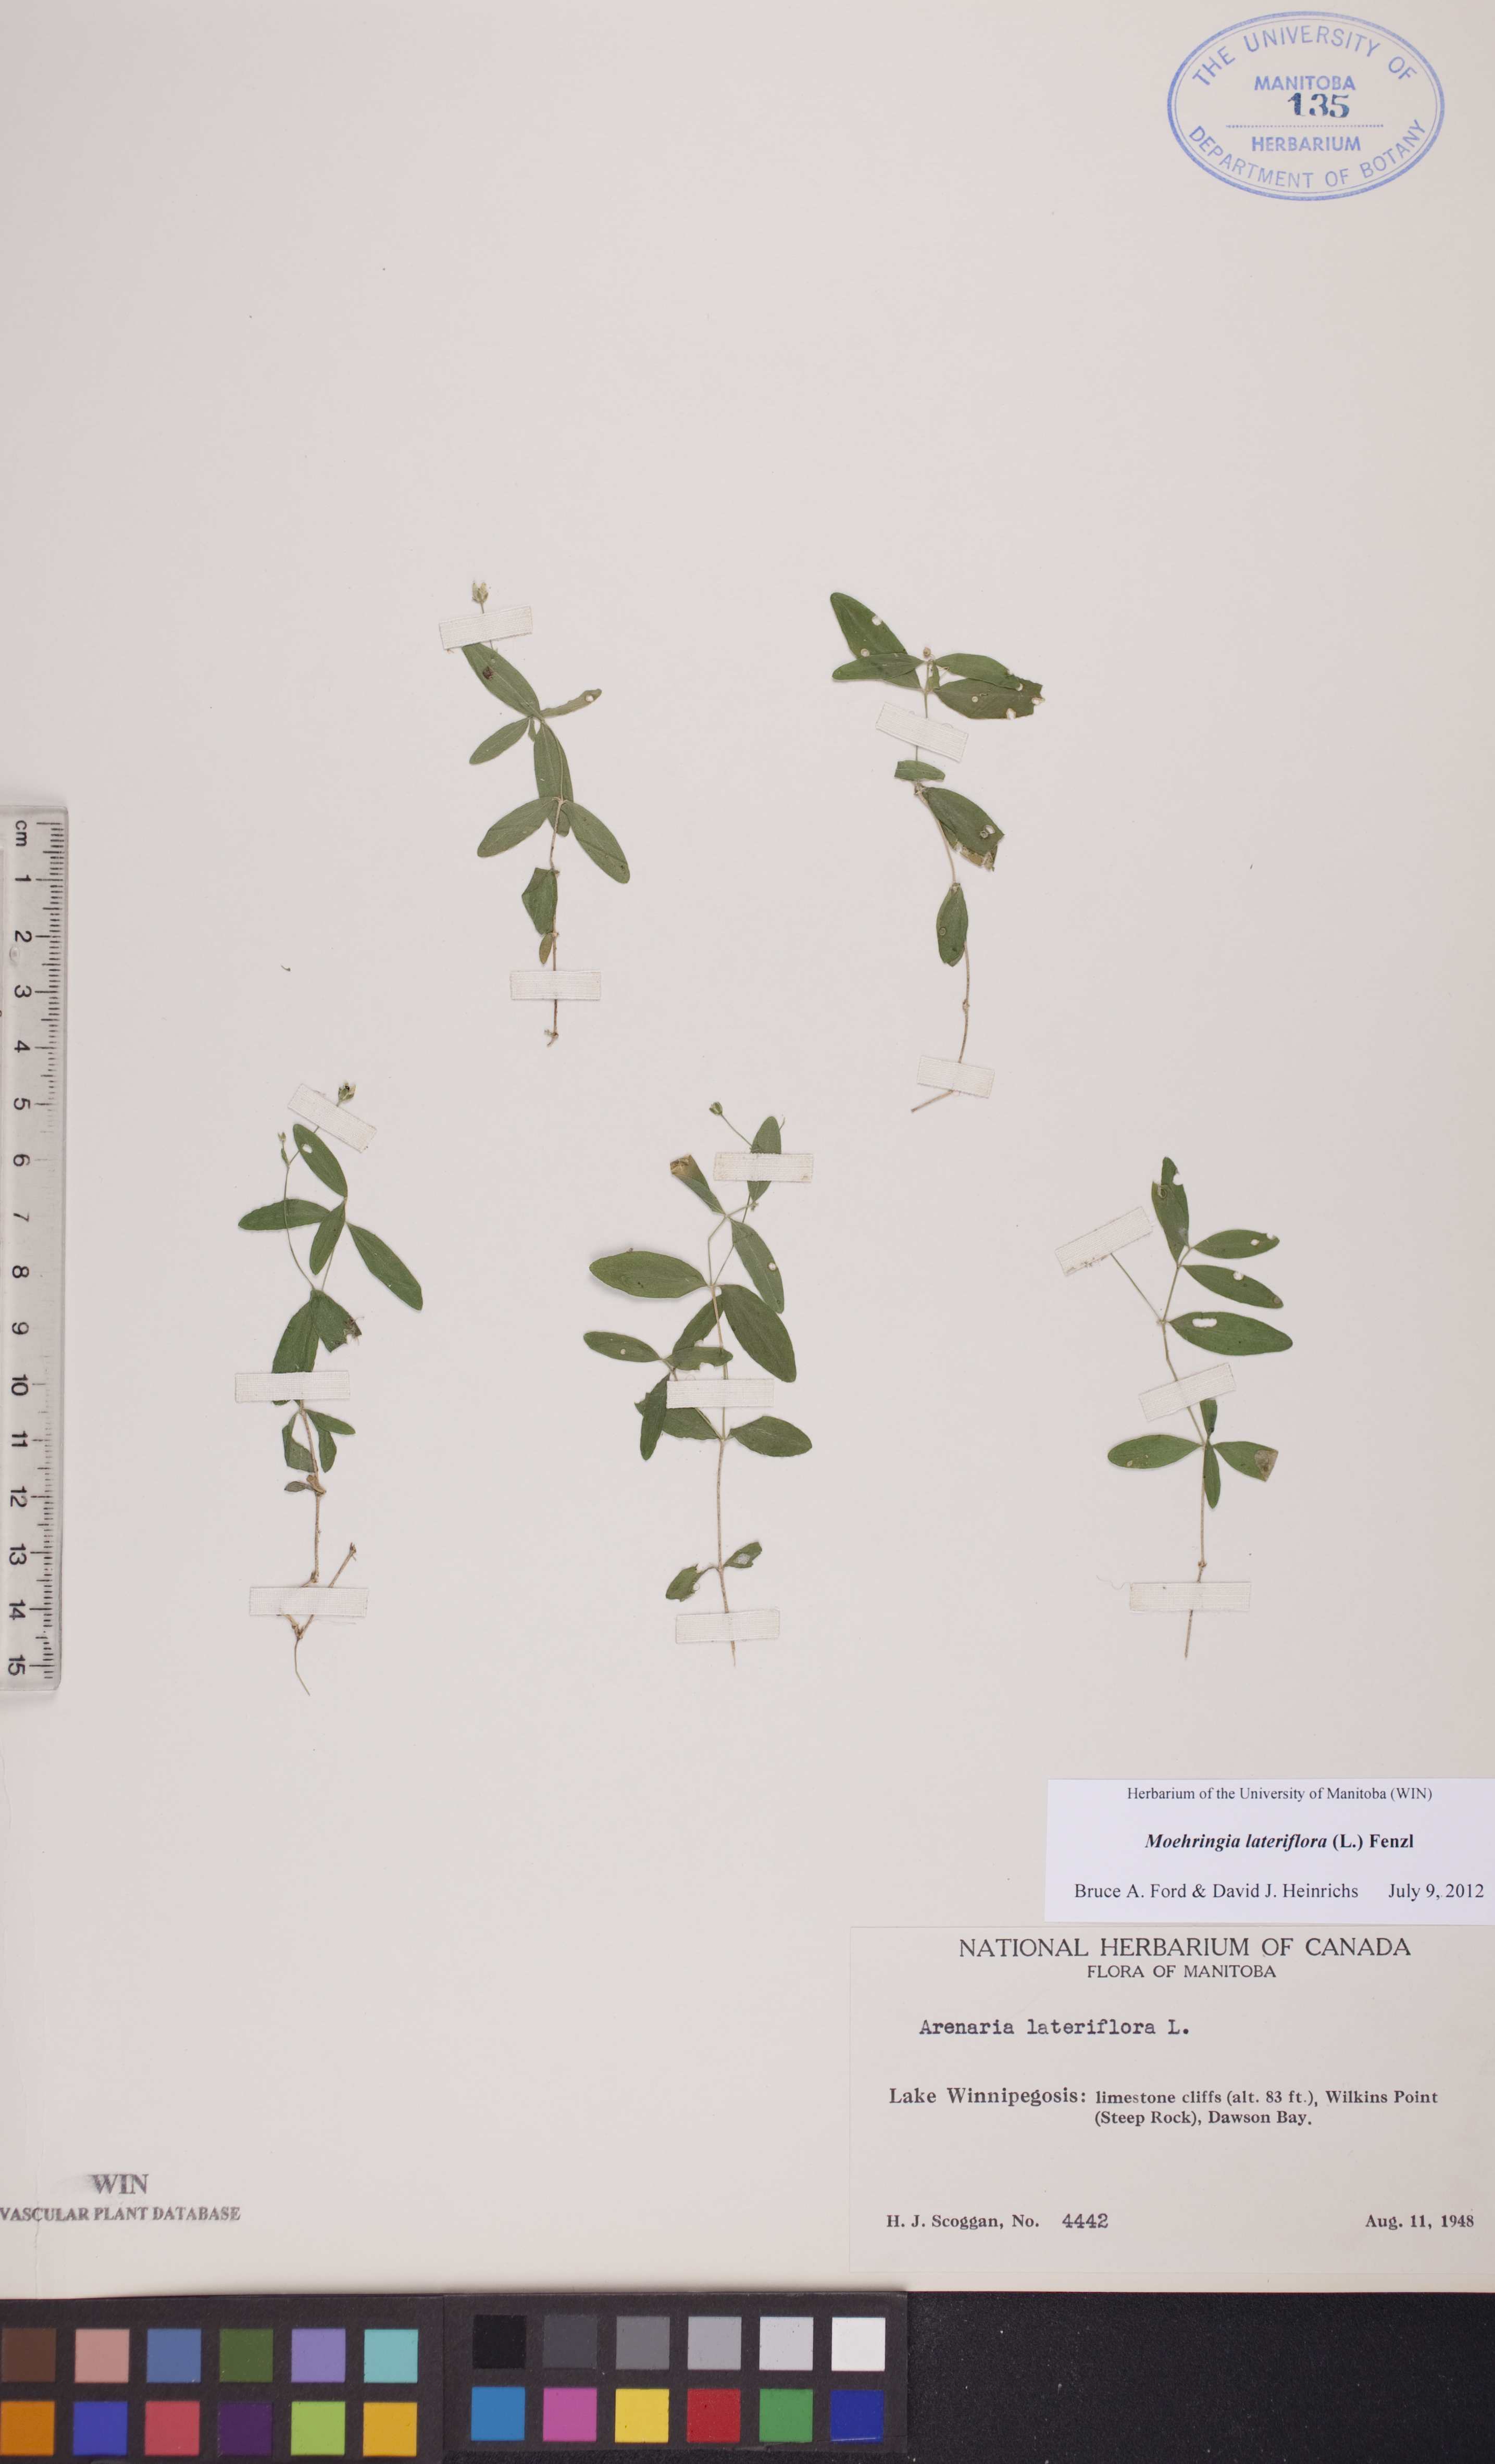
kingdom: Plantae
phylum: Tracheophyta
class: Magnoliopsida
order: Caryophyllales
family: Caryophyllaceae
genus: Moehringia
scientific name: Moehringia lateriflora
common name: Blunt-leaved sandwort
